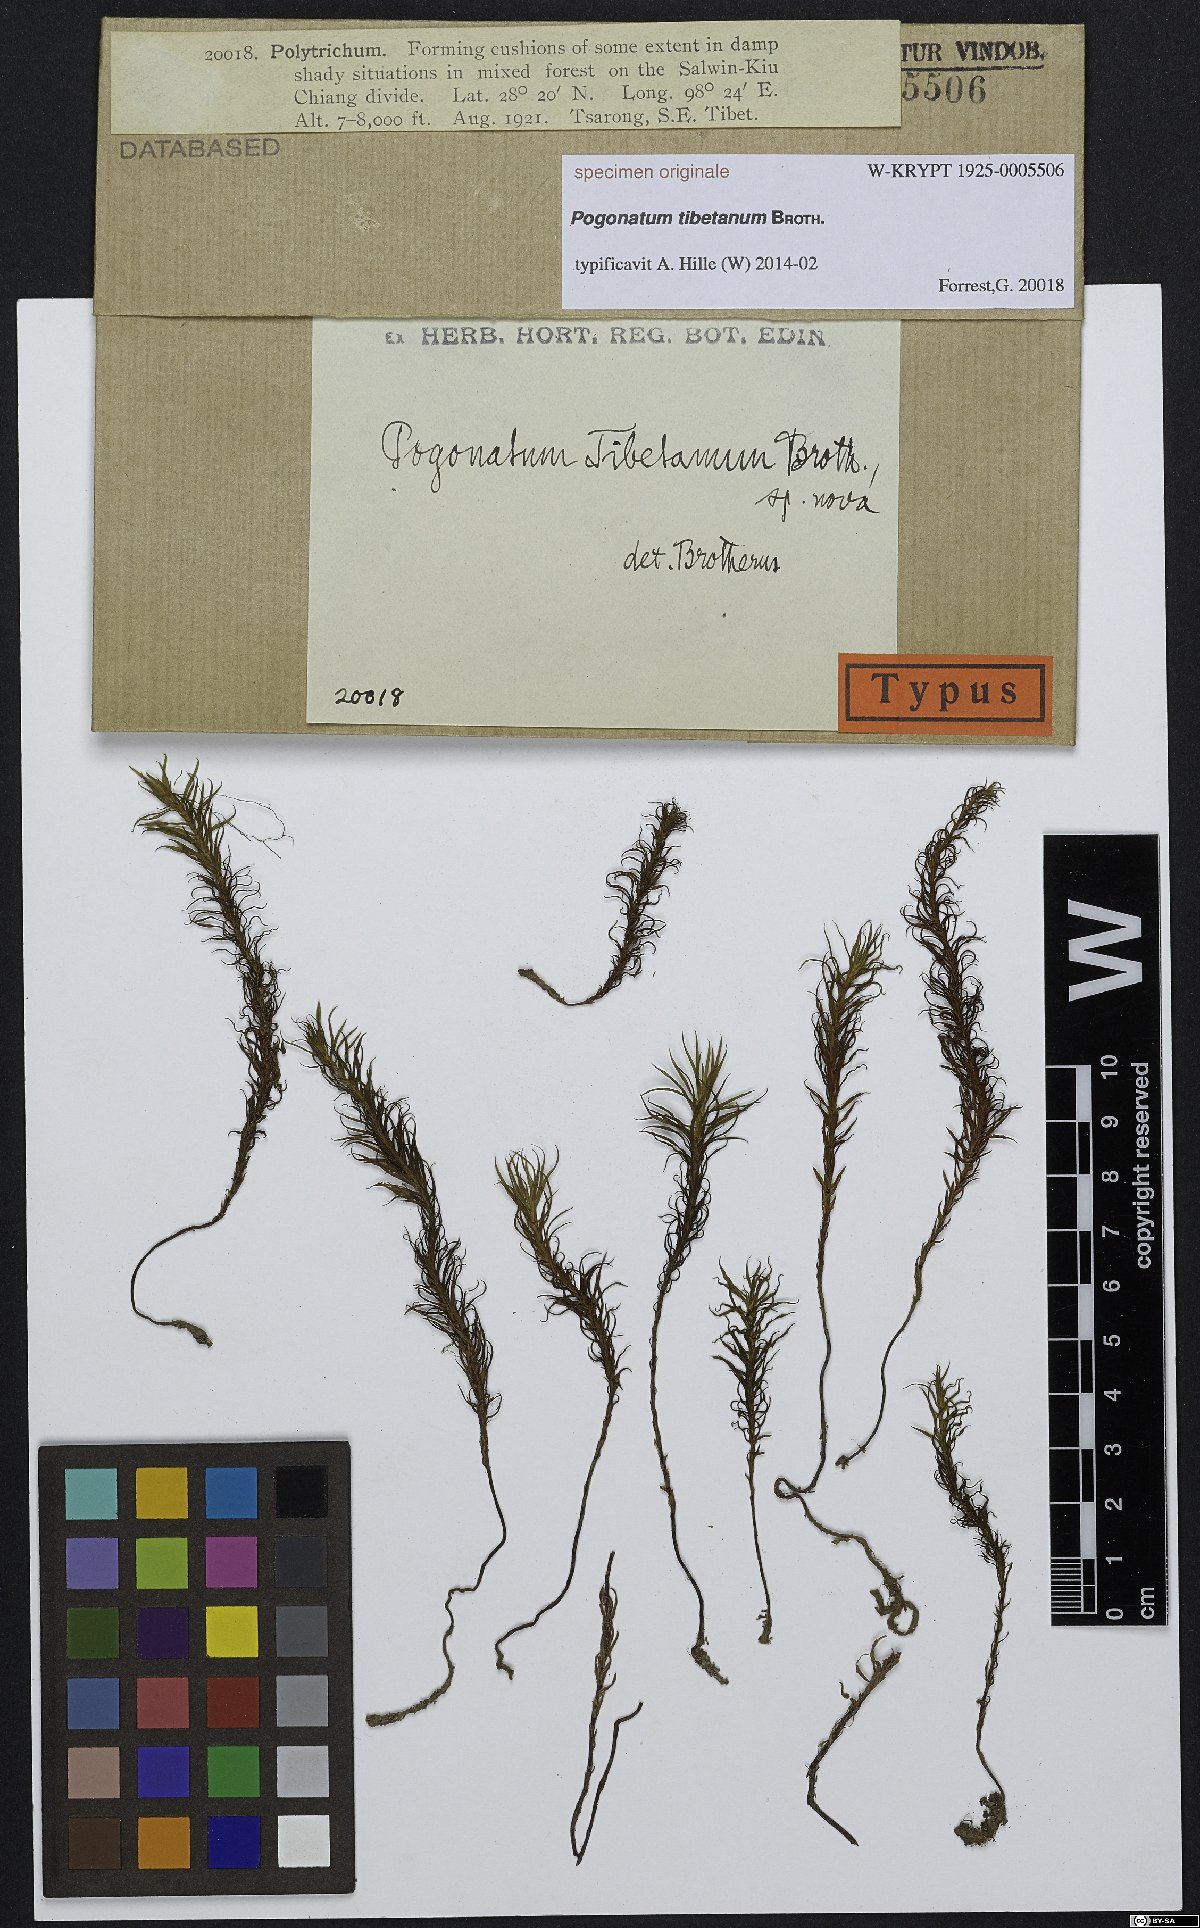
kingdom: Plantae
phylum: Bryophyta
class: Polytrichopsida
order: Polytrichales
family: Polytrichaceae
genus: Pogonatum
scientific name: Pogonatum
